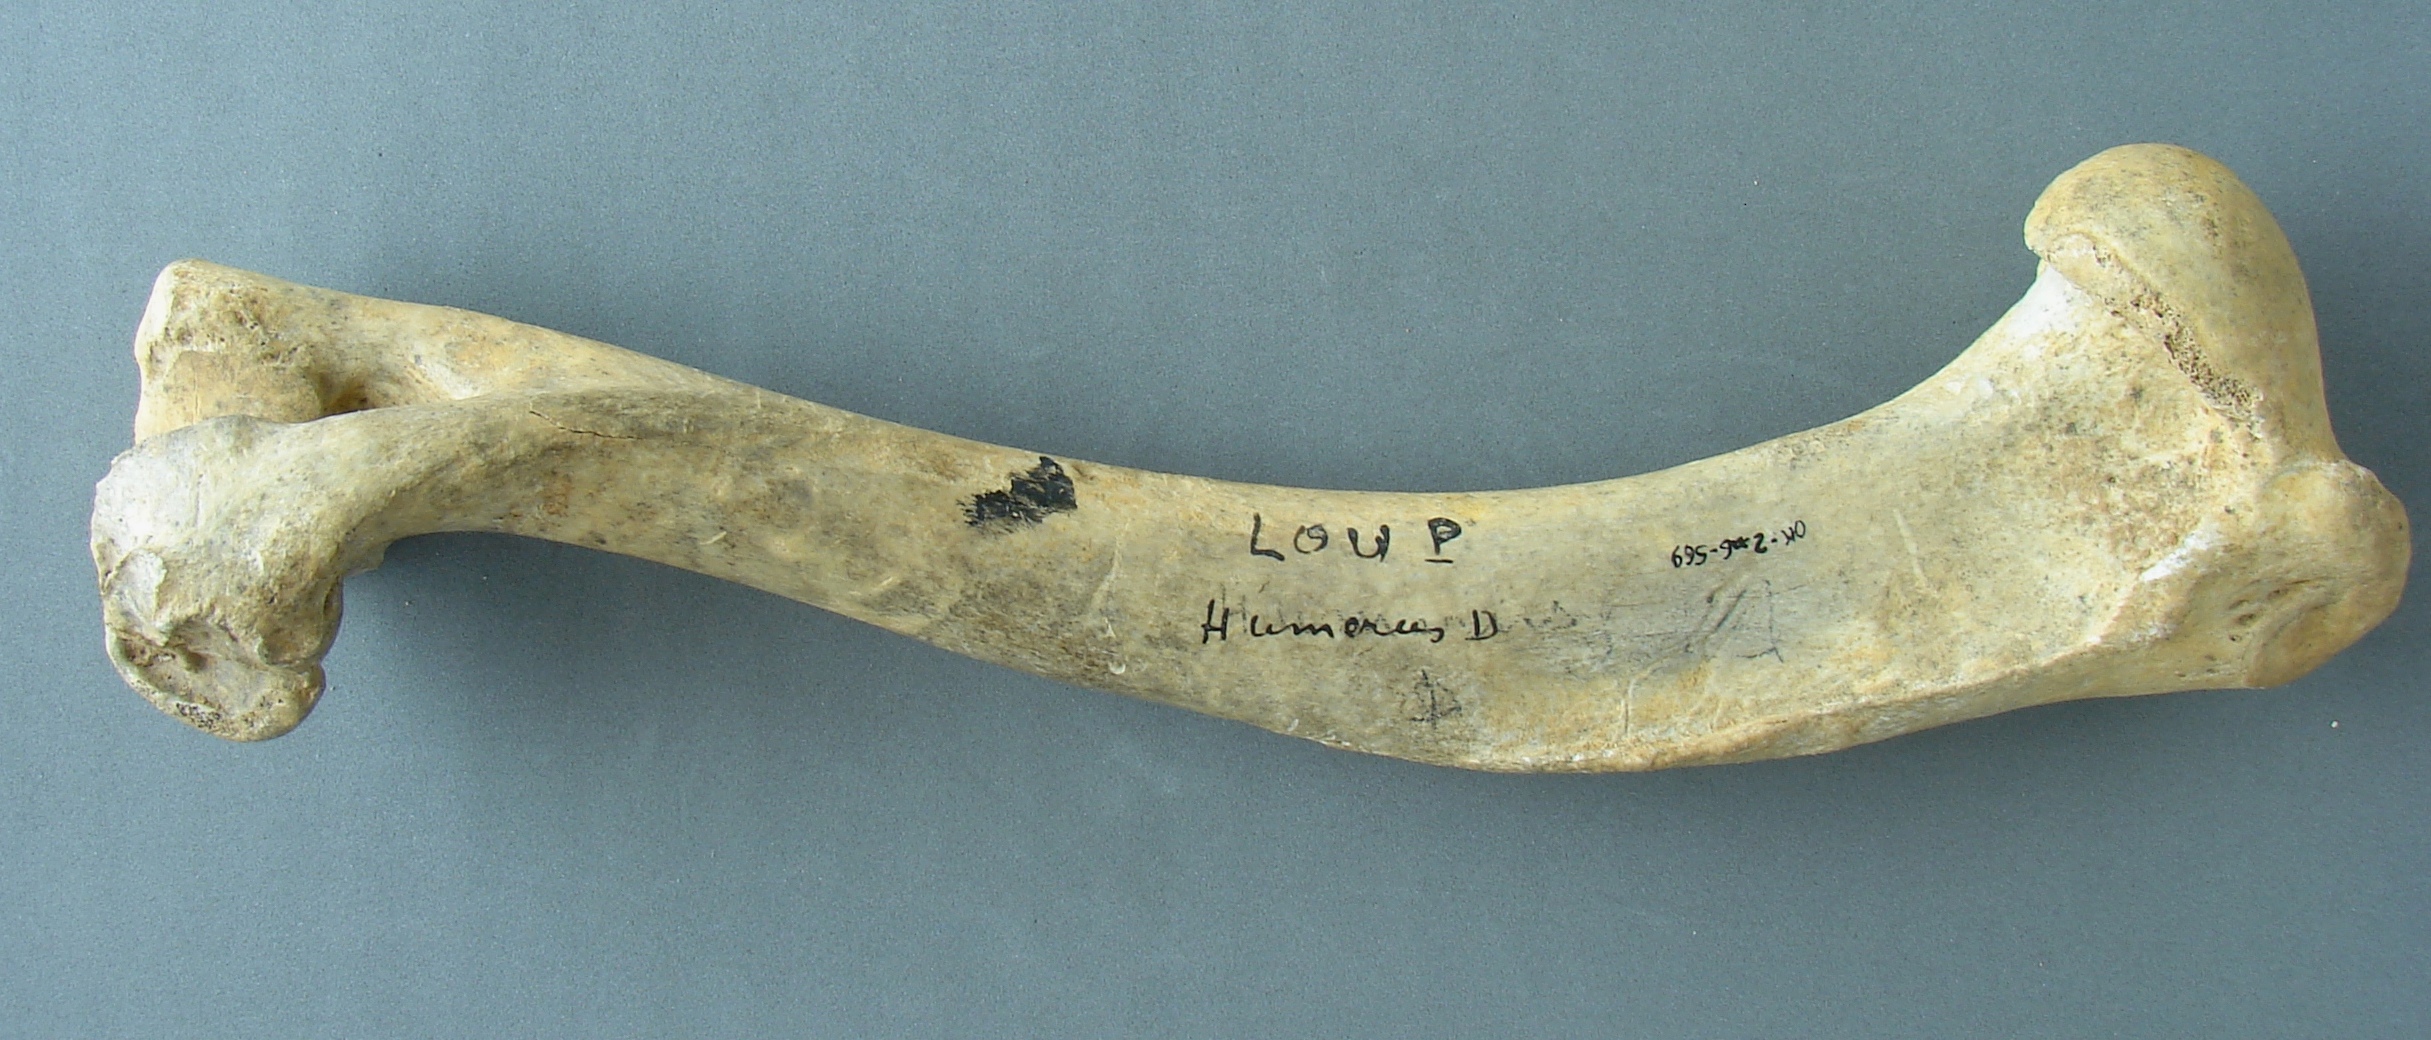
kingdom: Animalia
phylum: Chordata
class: Mammalia
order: Carnivora
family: Canidae
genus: Canis
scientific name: Canis lupus
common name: Gray wolf
